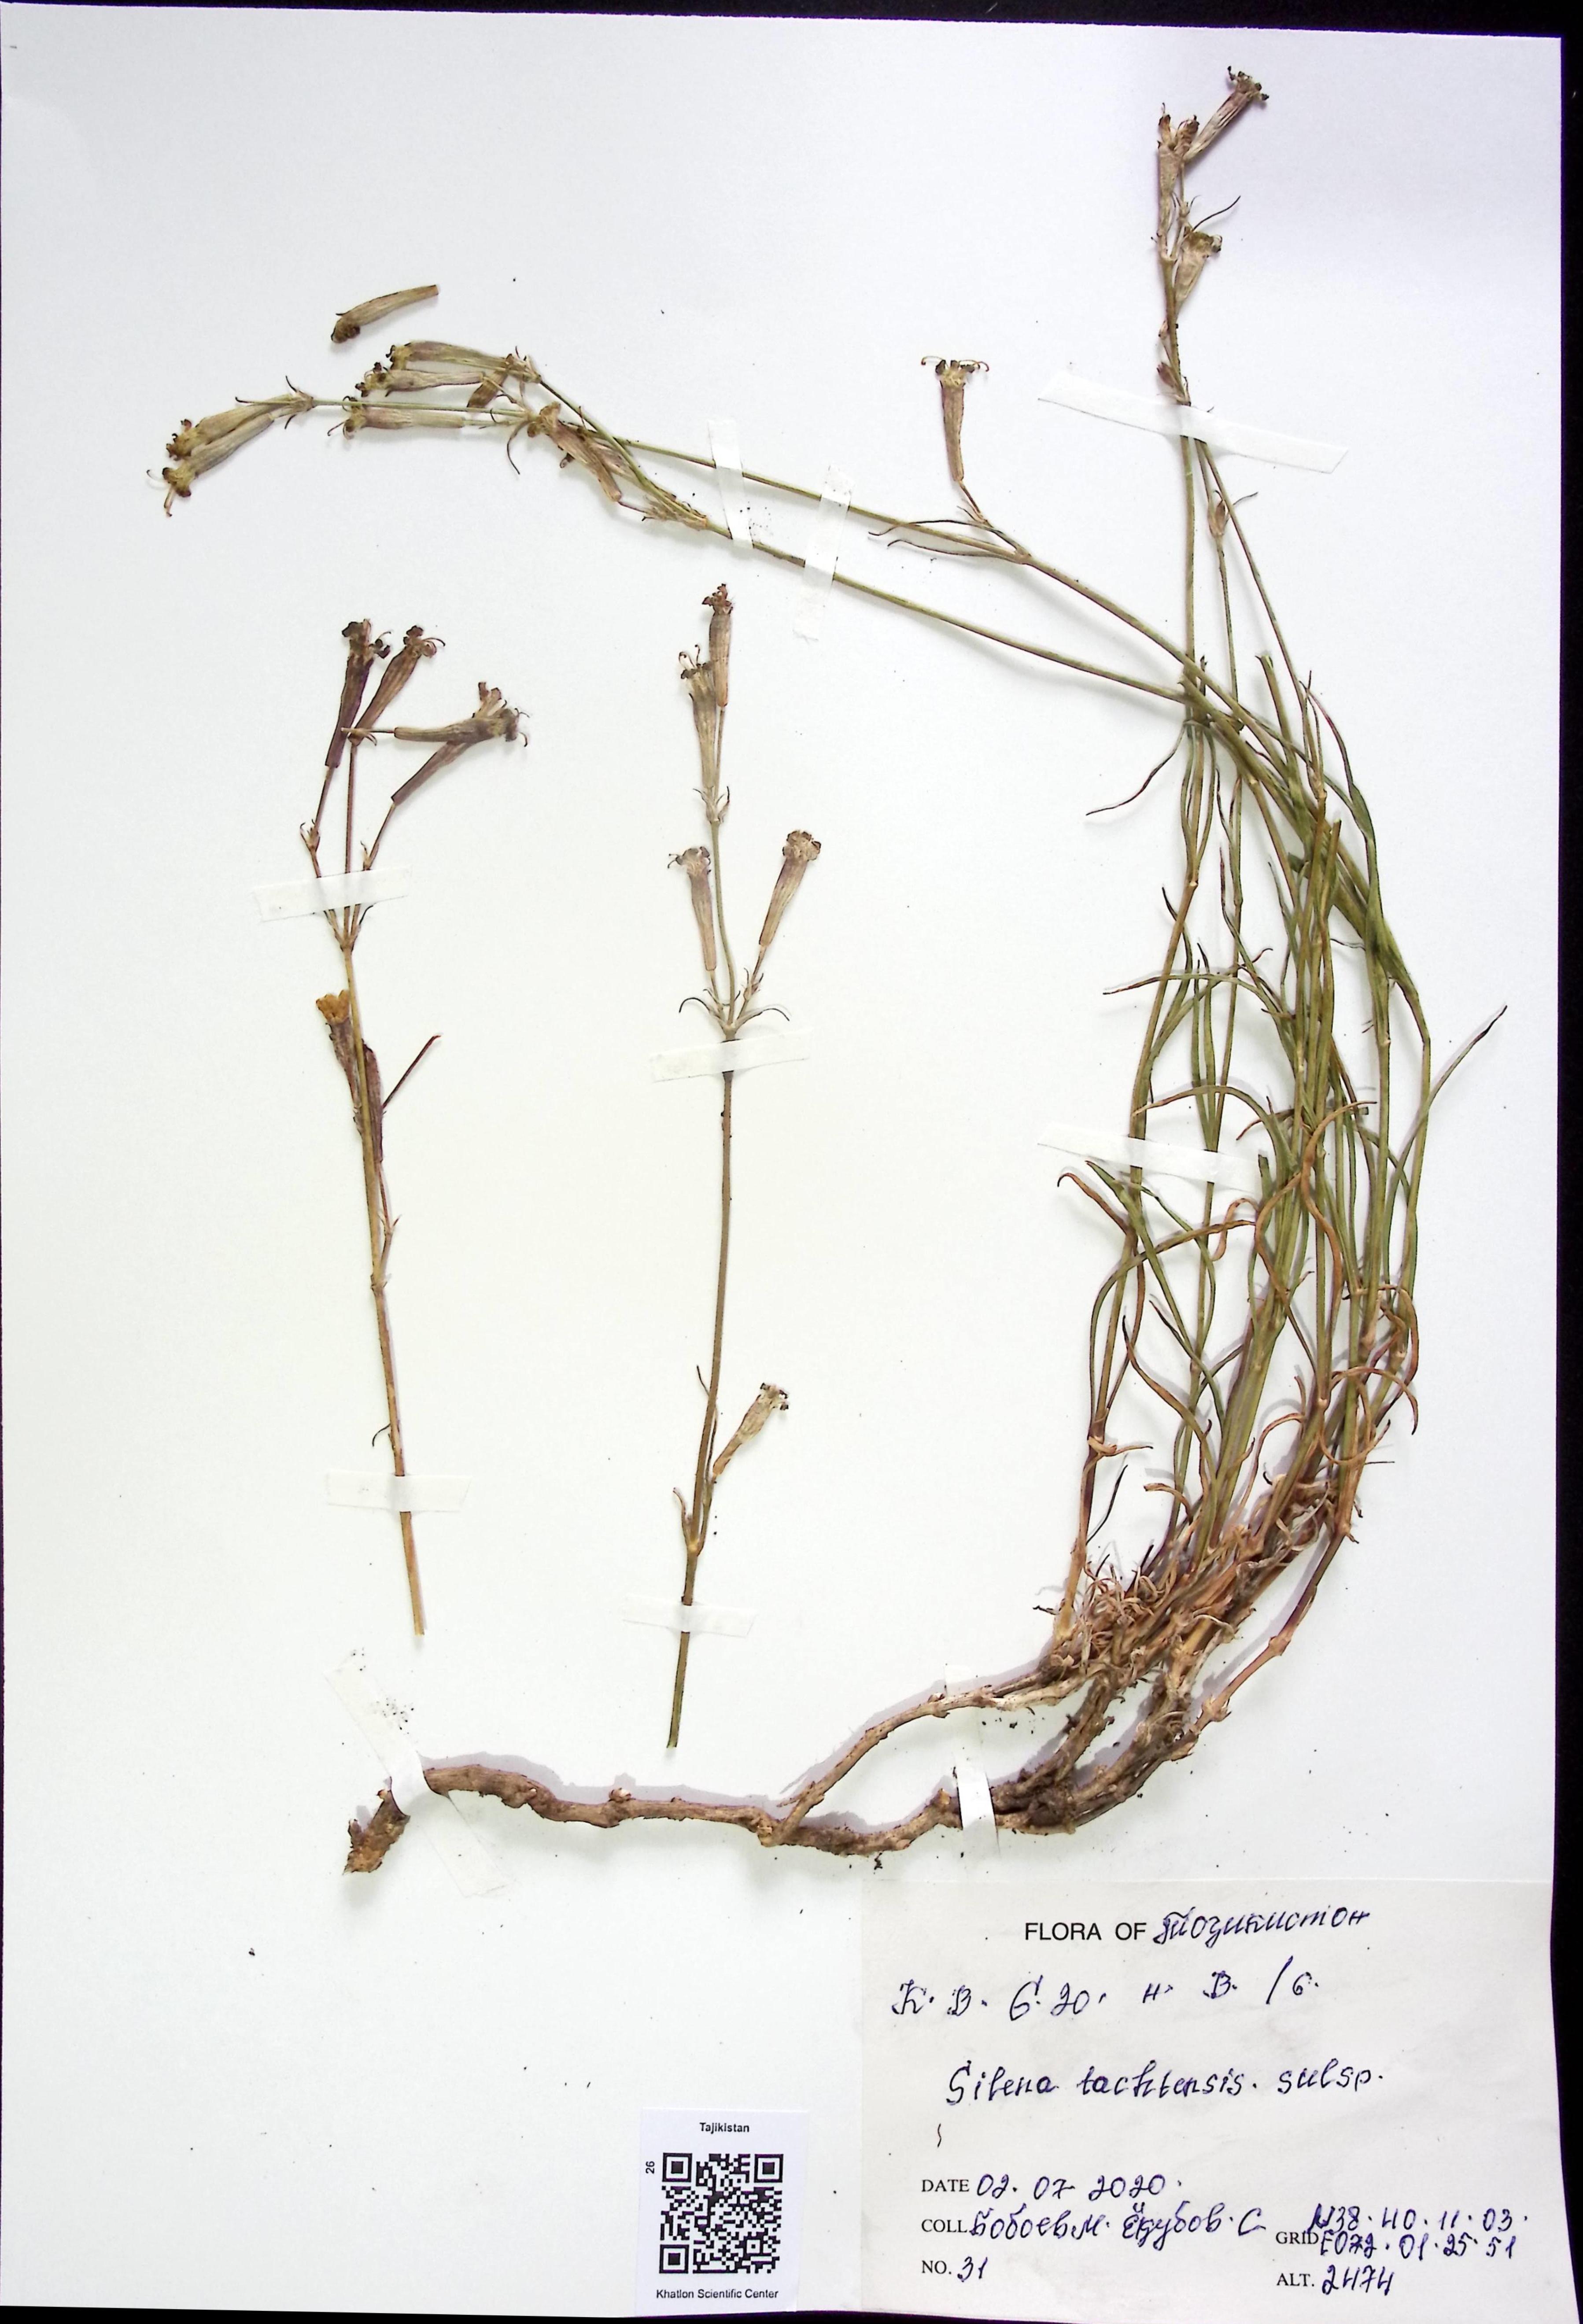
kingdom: Plantae
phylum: Tracheophyta
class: Magnoliopsida
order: Caryophyllales
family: Caryophyllaceae
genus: Silene
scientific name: Silene tachtensis
